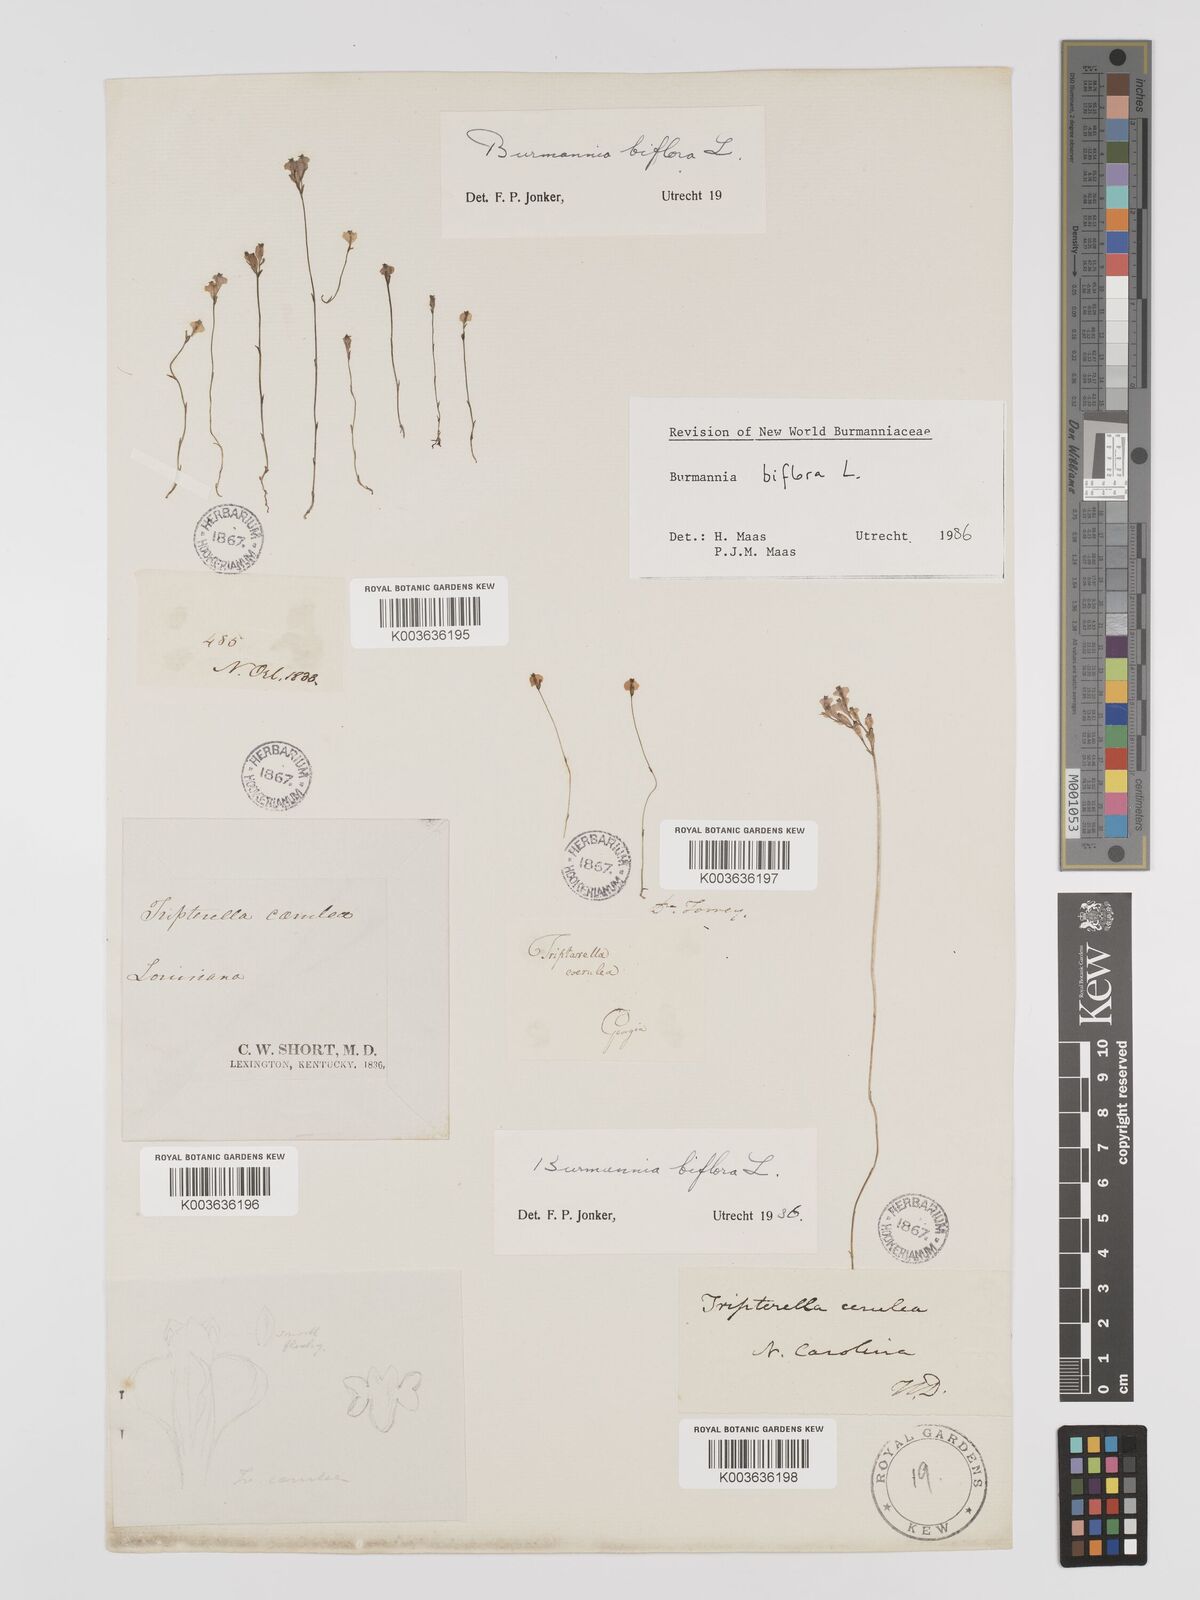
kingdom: Plantae
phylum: Tracheophyta
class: Liliopsida
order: Dioscoreales
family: Burmanniaceae
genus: Burmannia
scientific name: Burmannia biflora
